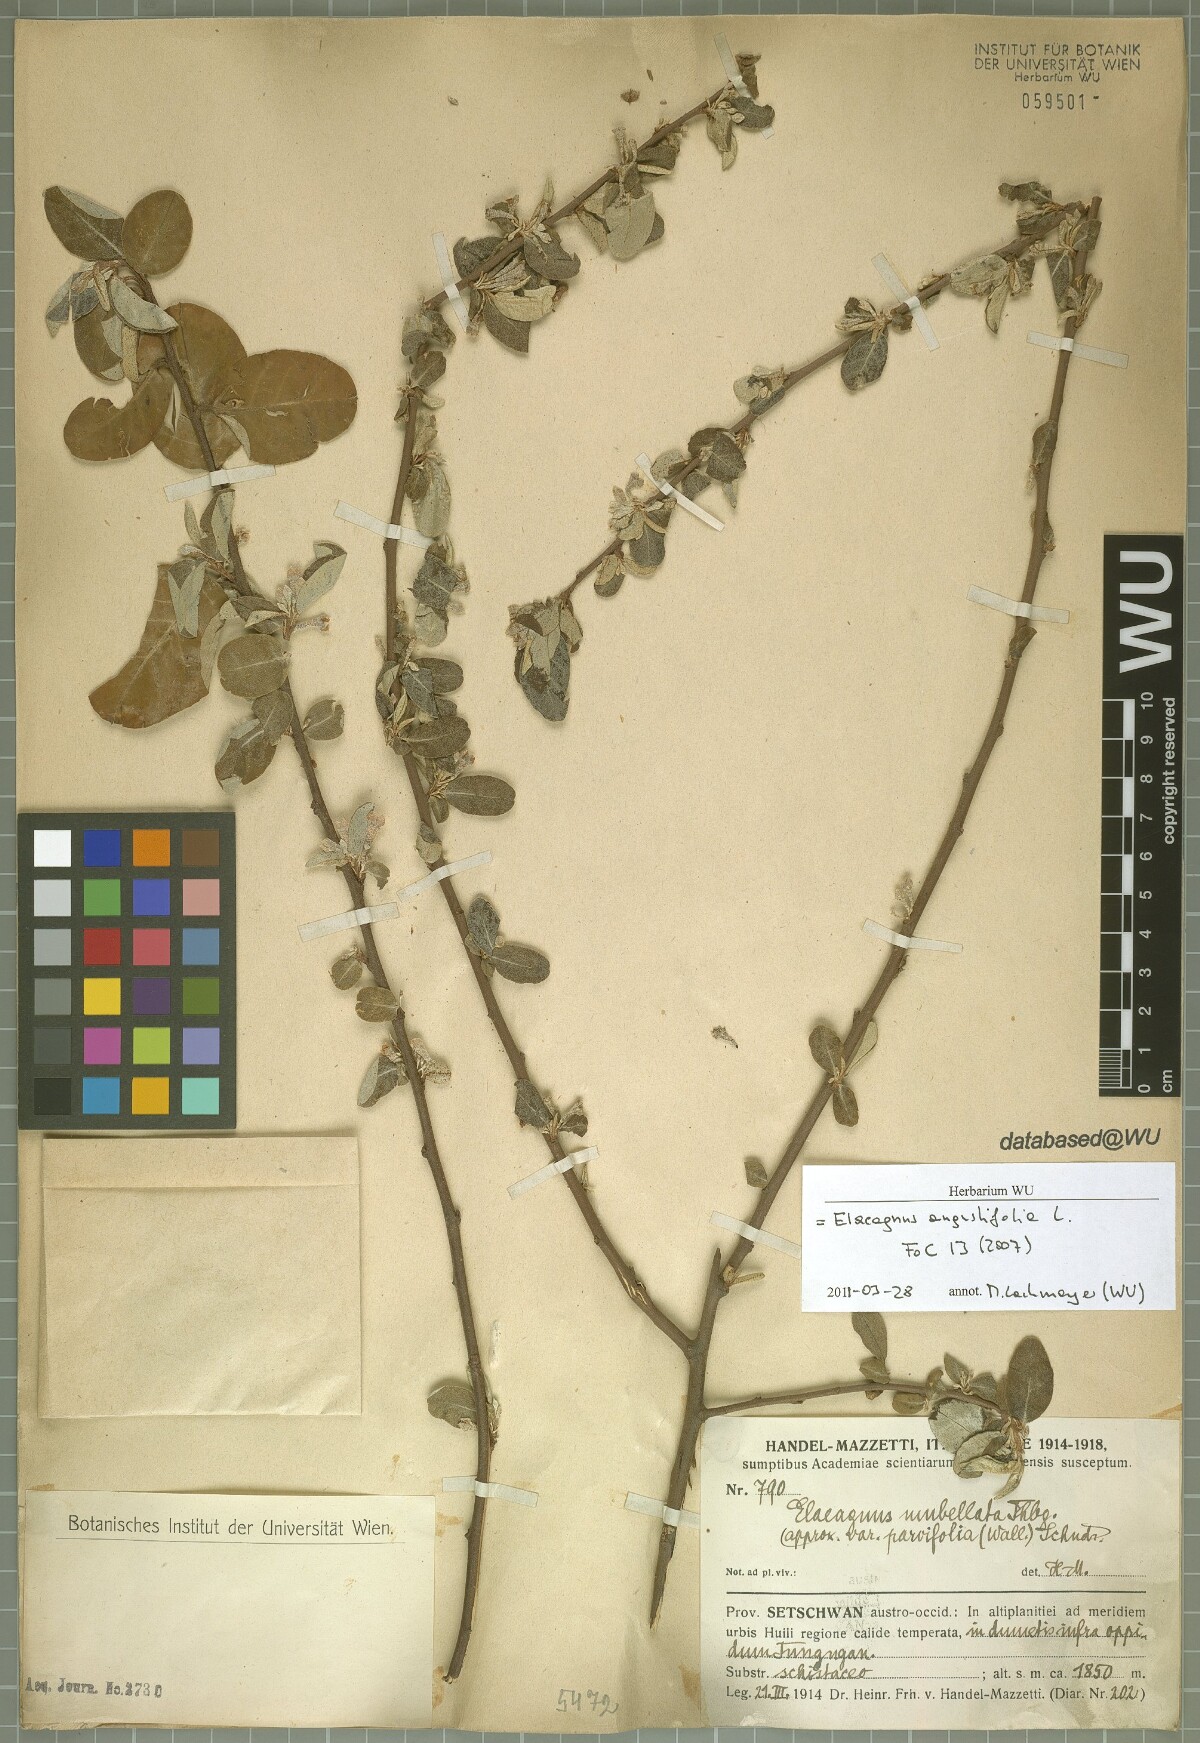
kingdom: Plantae
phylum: Tracheophyta
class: Magnoliopsida
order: Rosales
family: Elaeagnaceae
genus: Elaeagnus
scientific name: Elaeagnus angustifolia
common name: Russian olive
